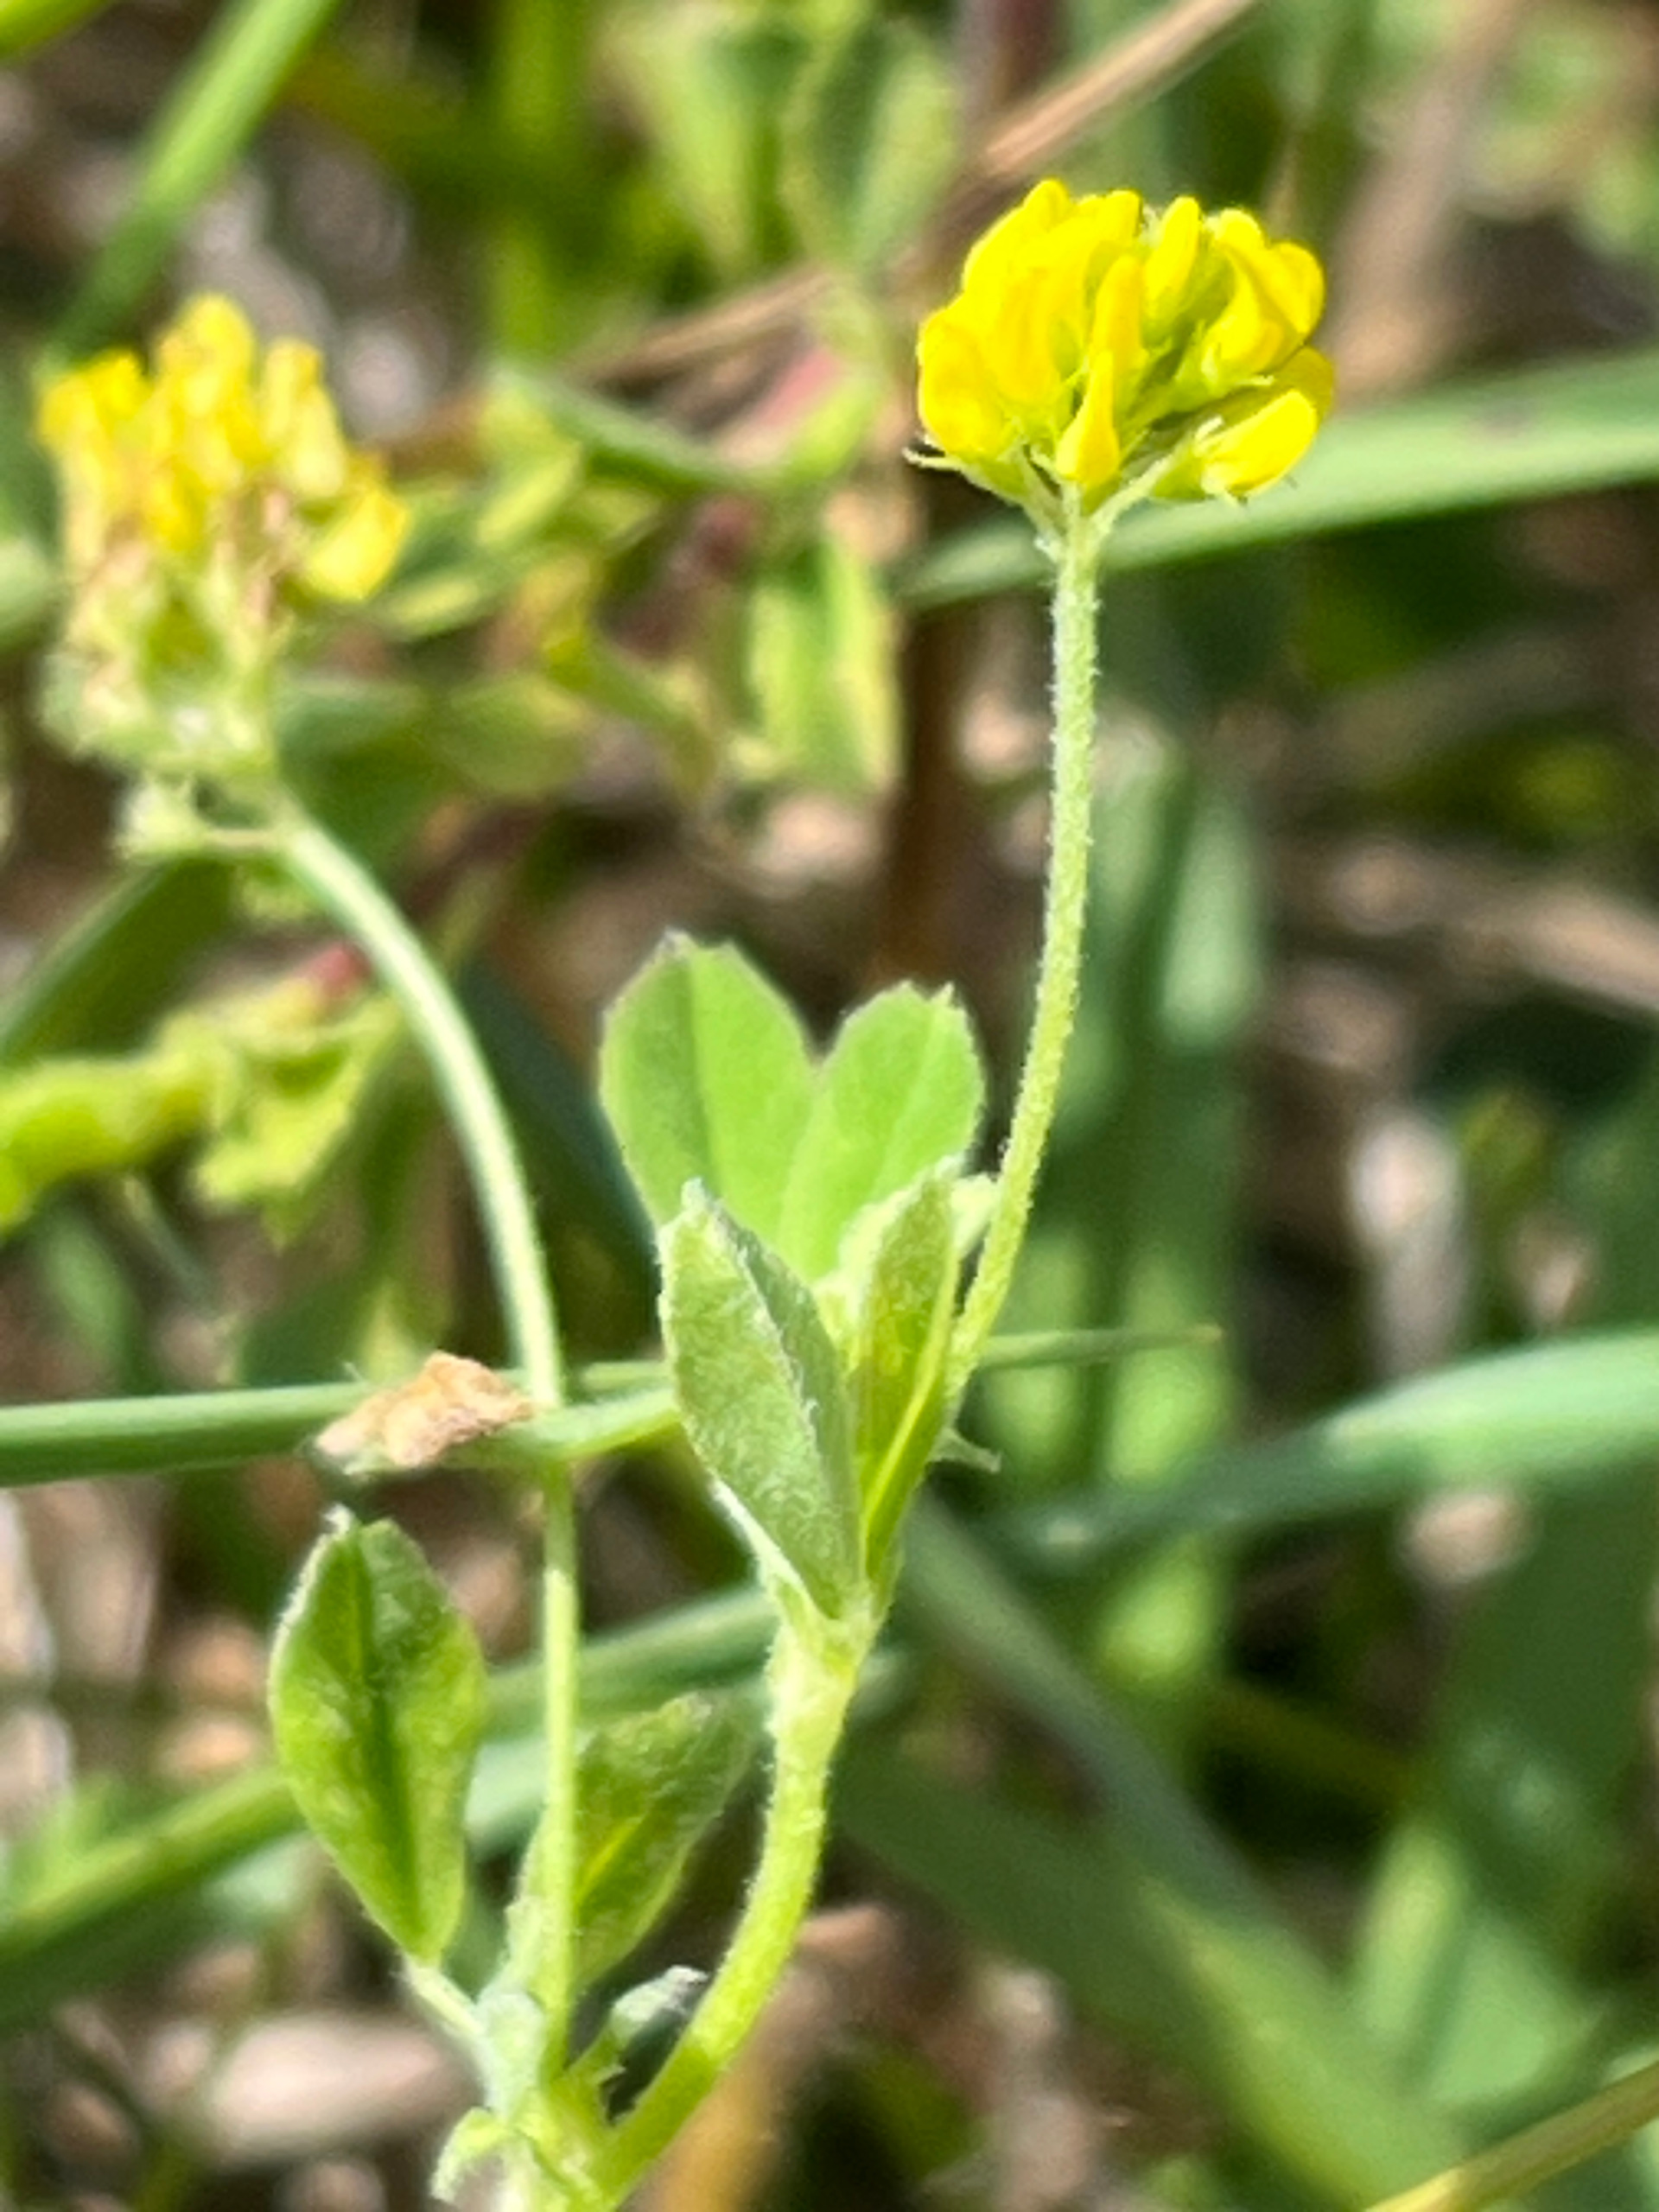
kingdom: Plantae
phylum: Tracheophyta
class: Magnoliopsida
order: Fabales
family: Fabaceae
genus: Medicago
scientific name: Medicago lupulina
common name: Humle-sneglebælg
